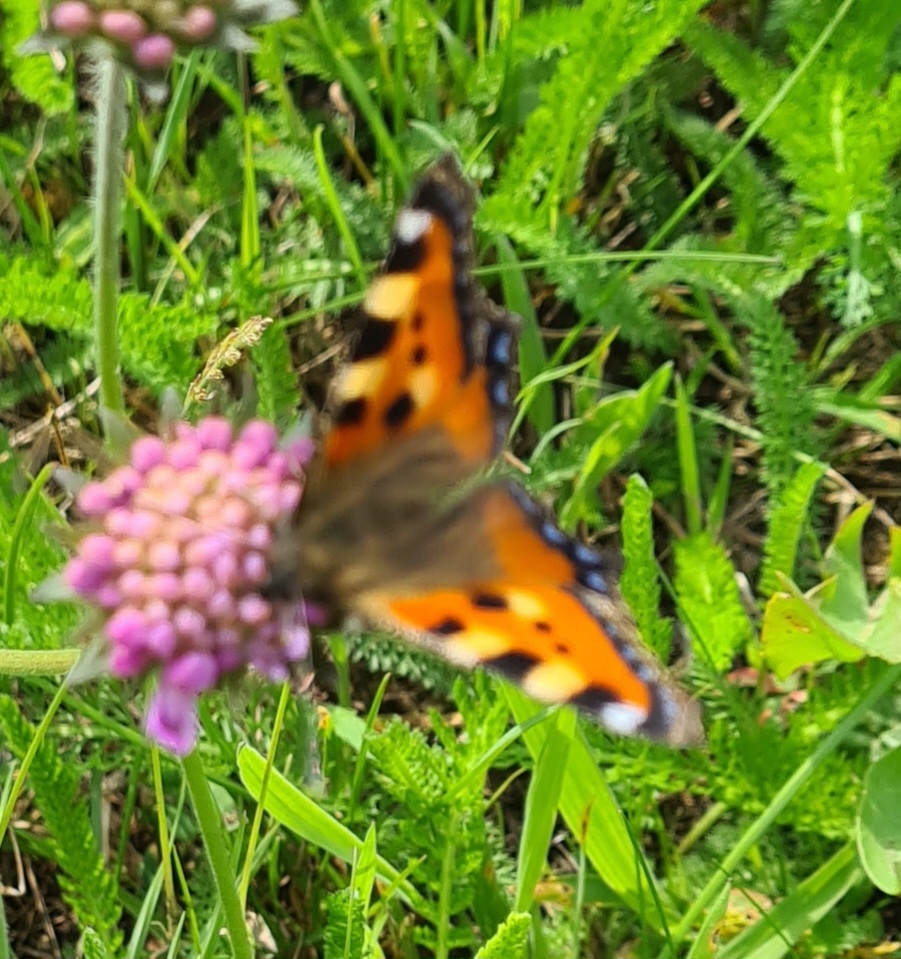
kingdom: Animalia
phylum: Arthropoda
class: Insecta
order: Lepidoptera
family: Nymphalidae
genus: Aglais
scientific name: Aglais urticae
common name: Nældens takvinge
